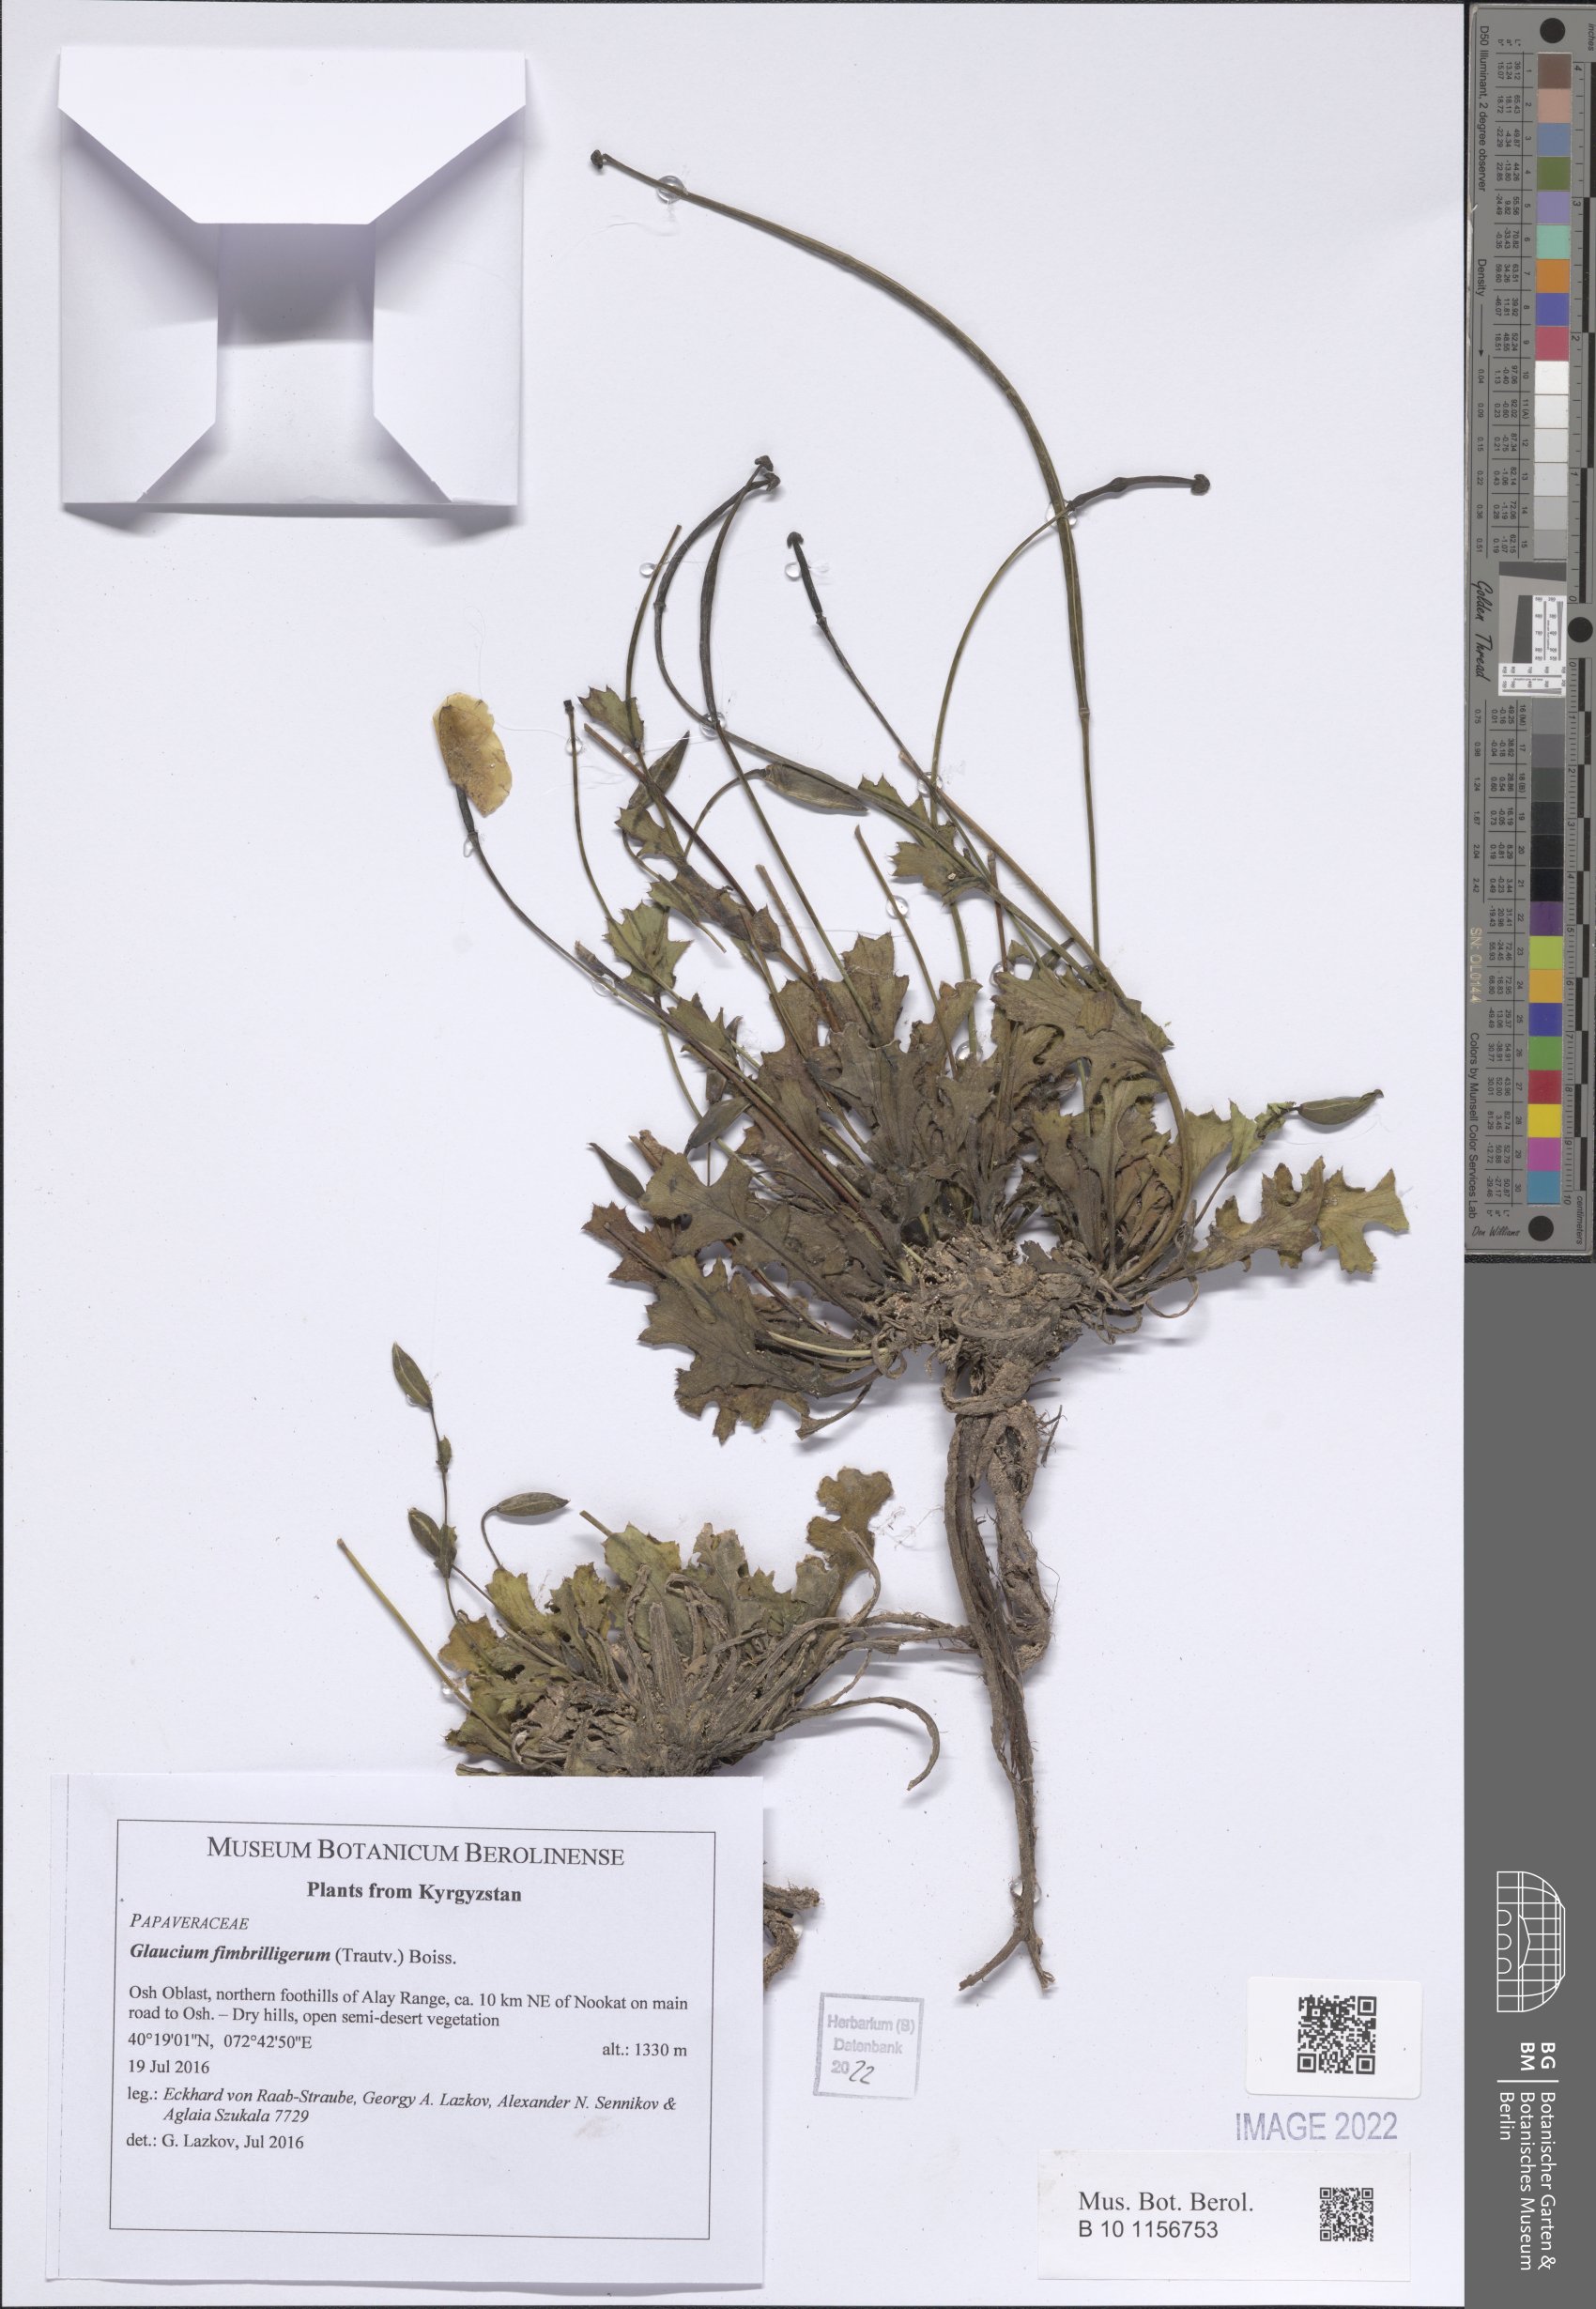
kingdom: Plantae
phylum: Tracheophyta
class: Magnoliopsida
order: Ranunculales
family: Papaveraceae
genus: Glaucium
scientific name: Glaucium fimbrilligerum
